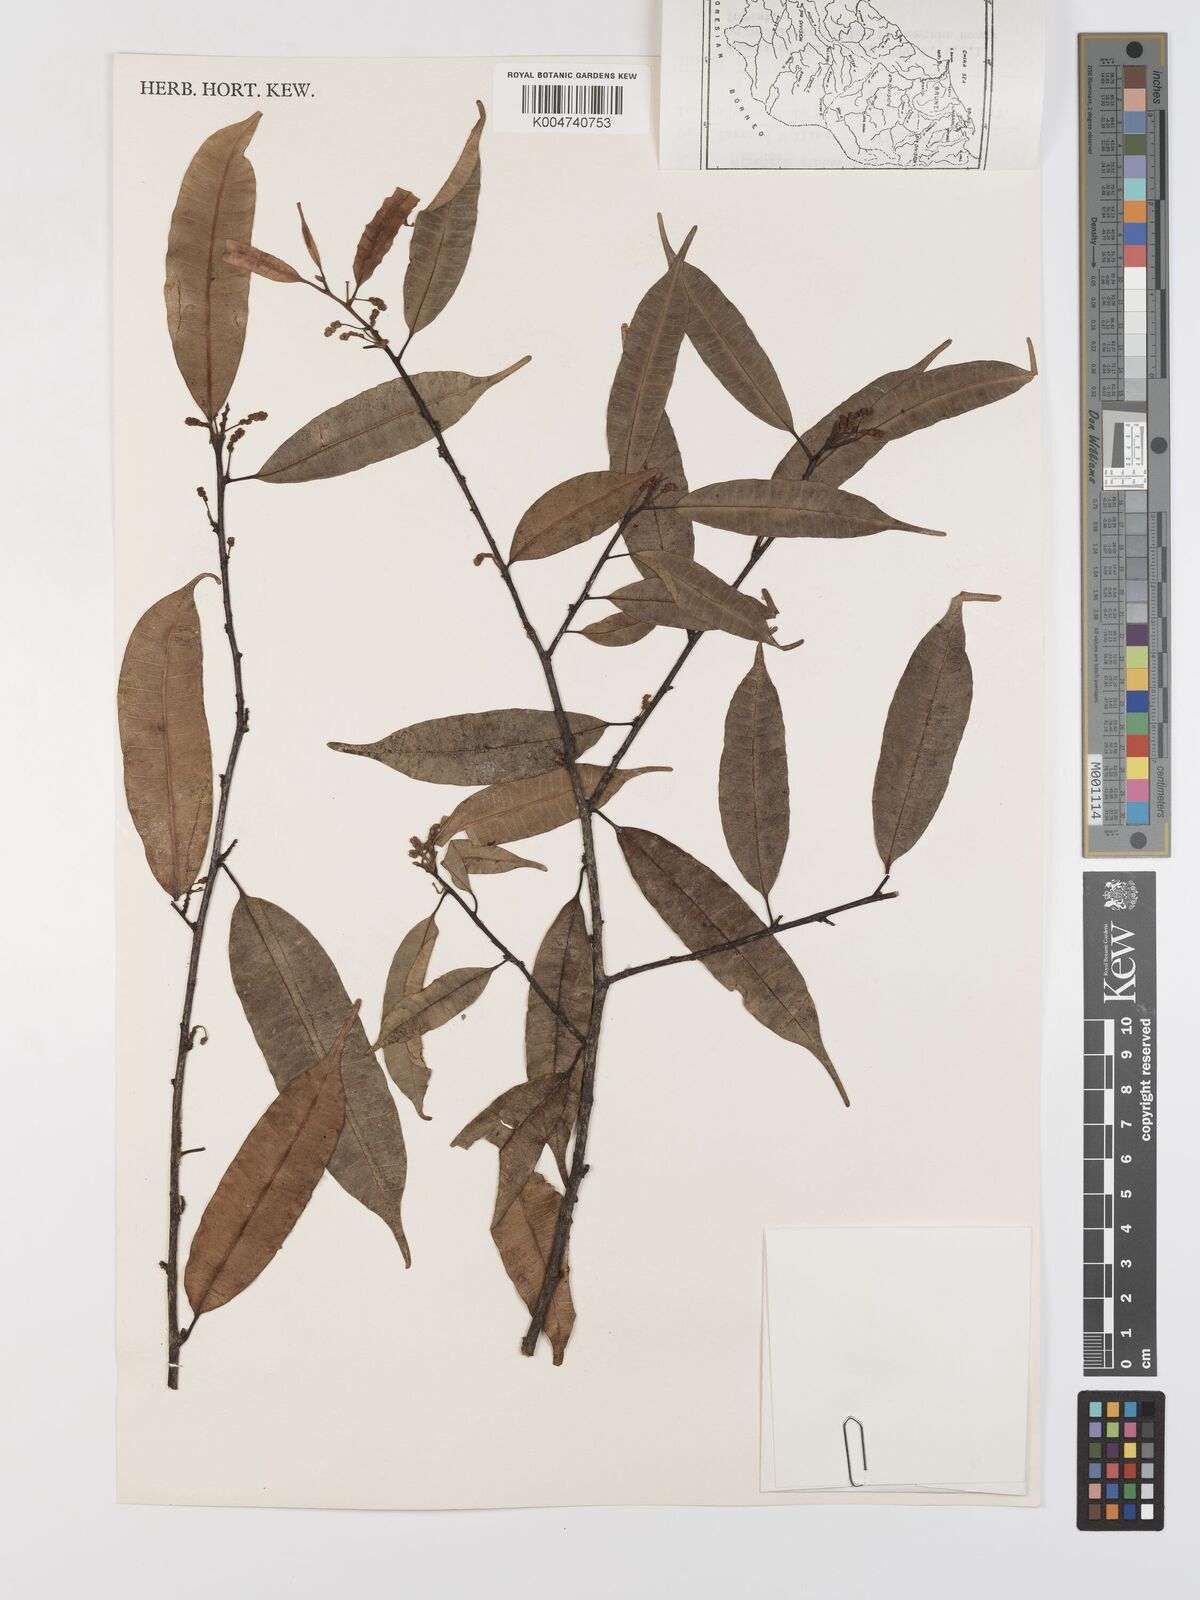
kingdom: Plantae
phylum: Tracheophyta
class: Magnoliopsida
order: Rosales
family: Moraceae
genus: Paratrophis
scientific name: Paratrophis glabra
